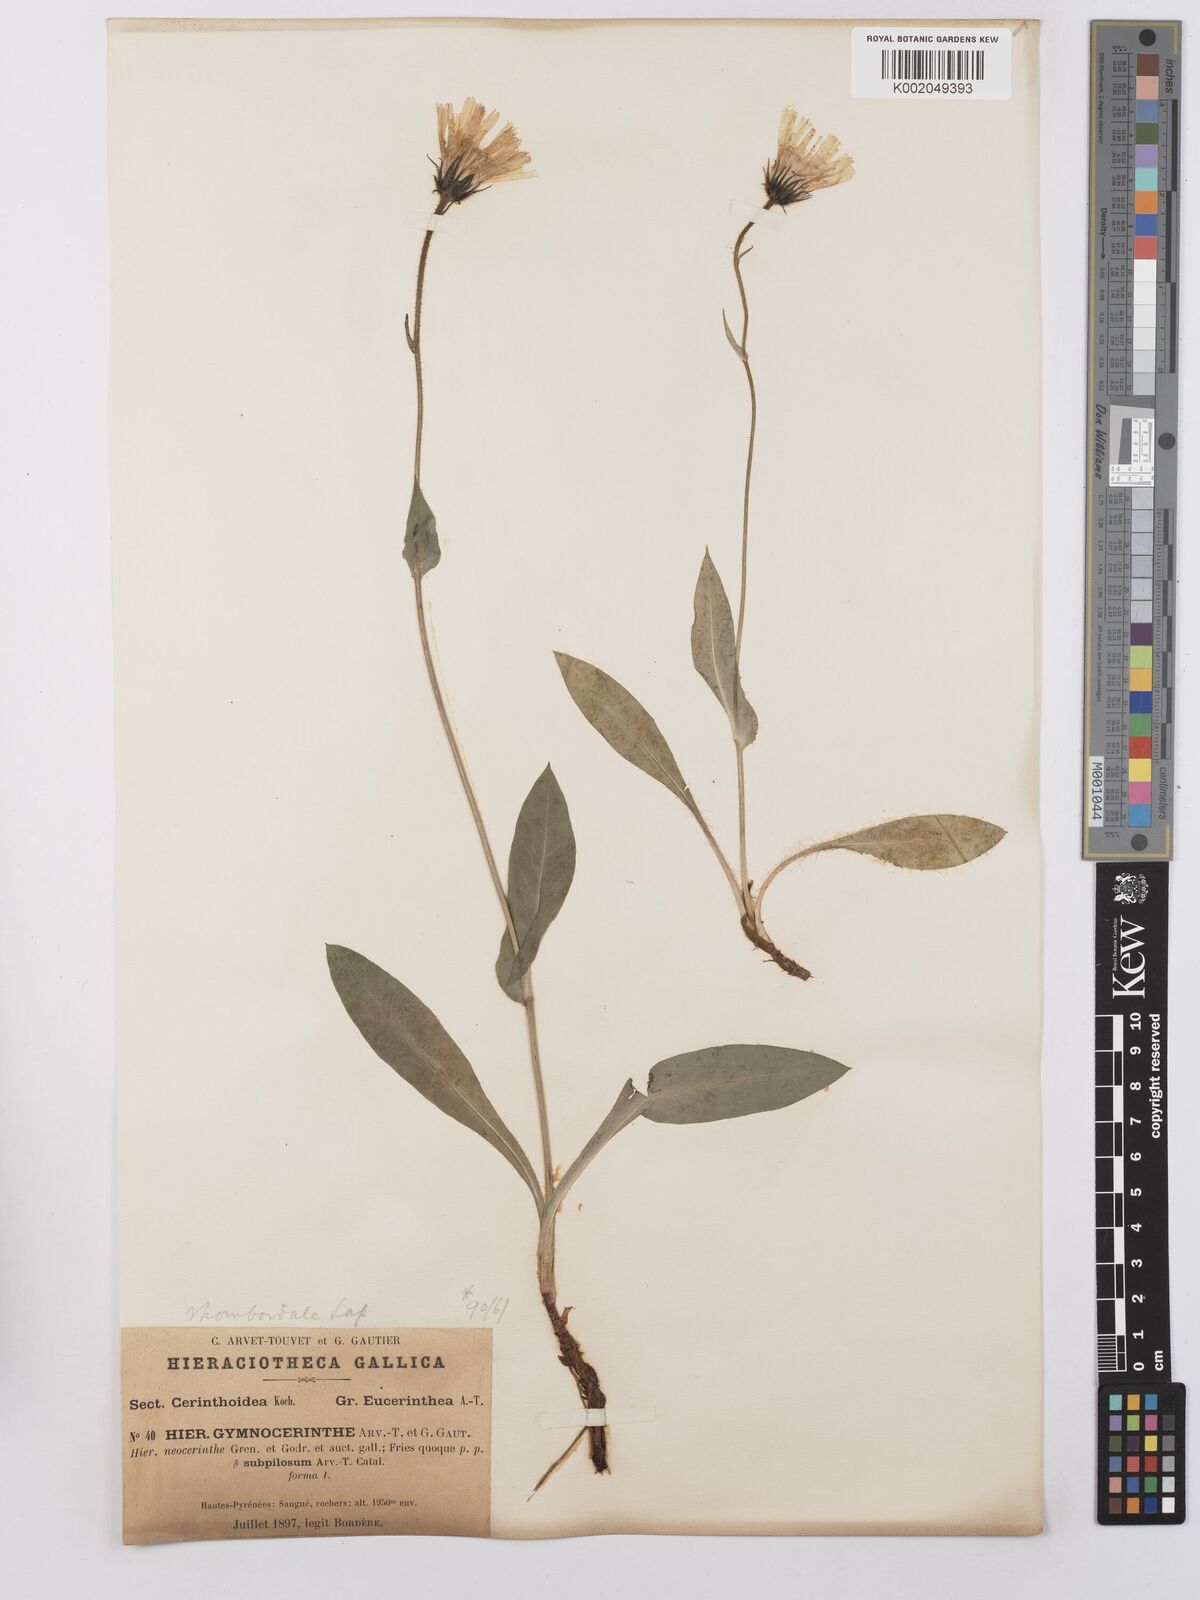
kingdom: Plantae
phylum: Tracheophyta
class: Magnoliopsida
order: Asterales
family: Asteraceae
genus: Hieracium
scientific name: Hieracium cerinthoides
